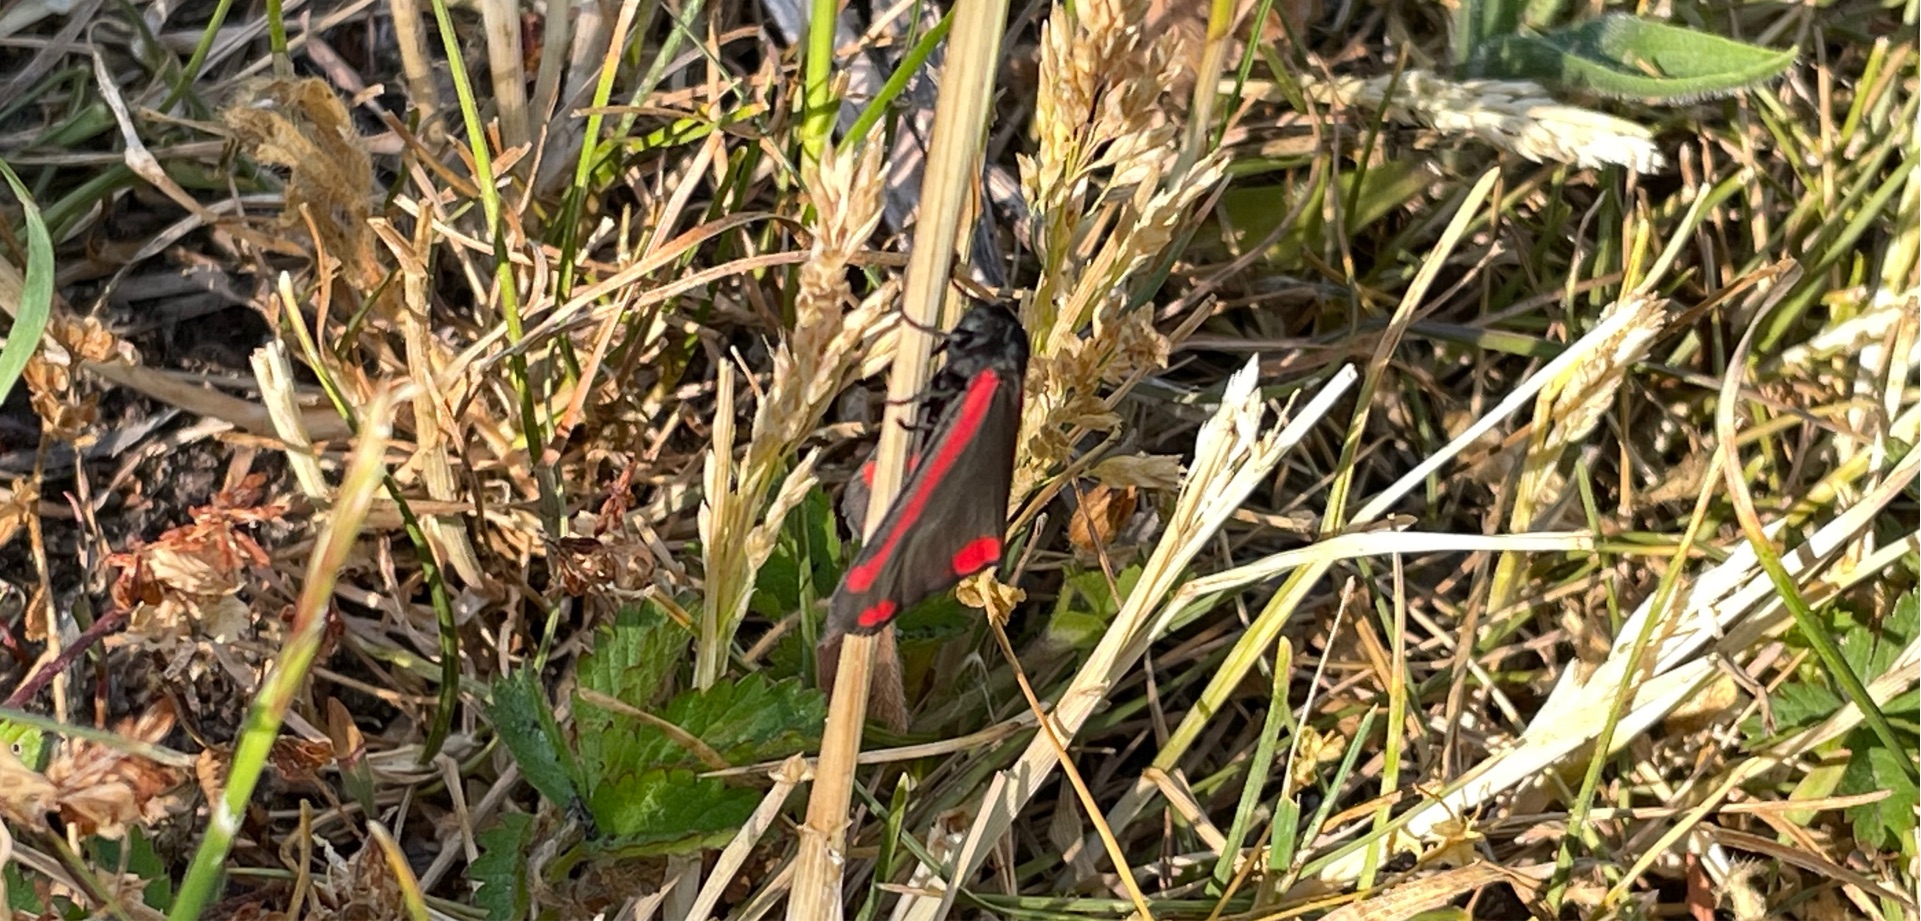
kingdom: Animalia
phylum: Arthropoda
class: Insecta
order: Lepidoptera
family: Erebidae
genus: Tyria
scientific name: Tyria jacobaeae
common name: Blodplet
